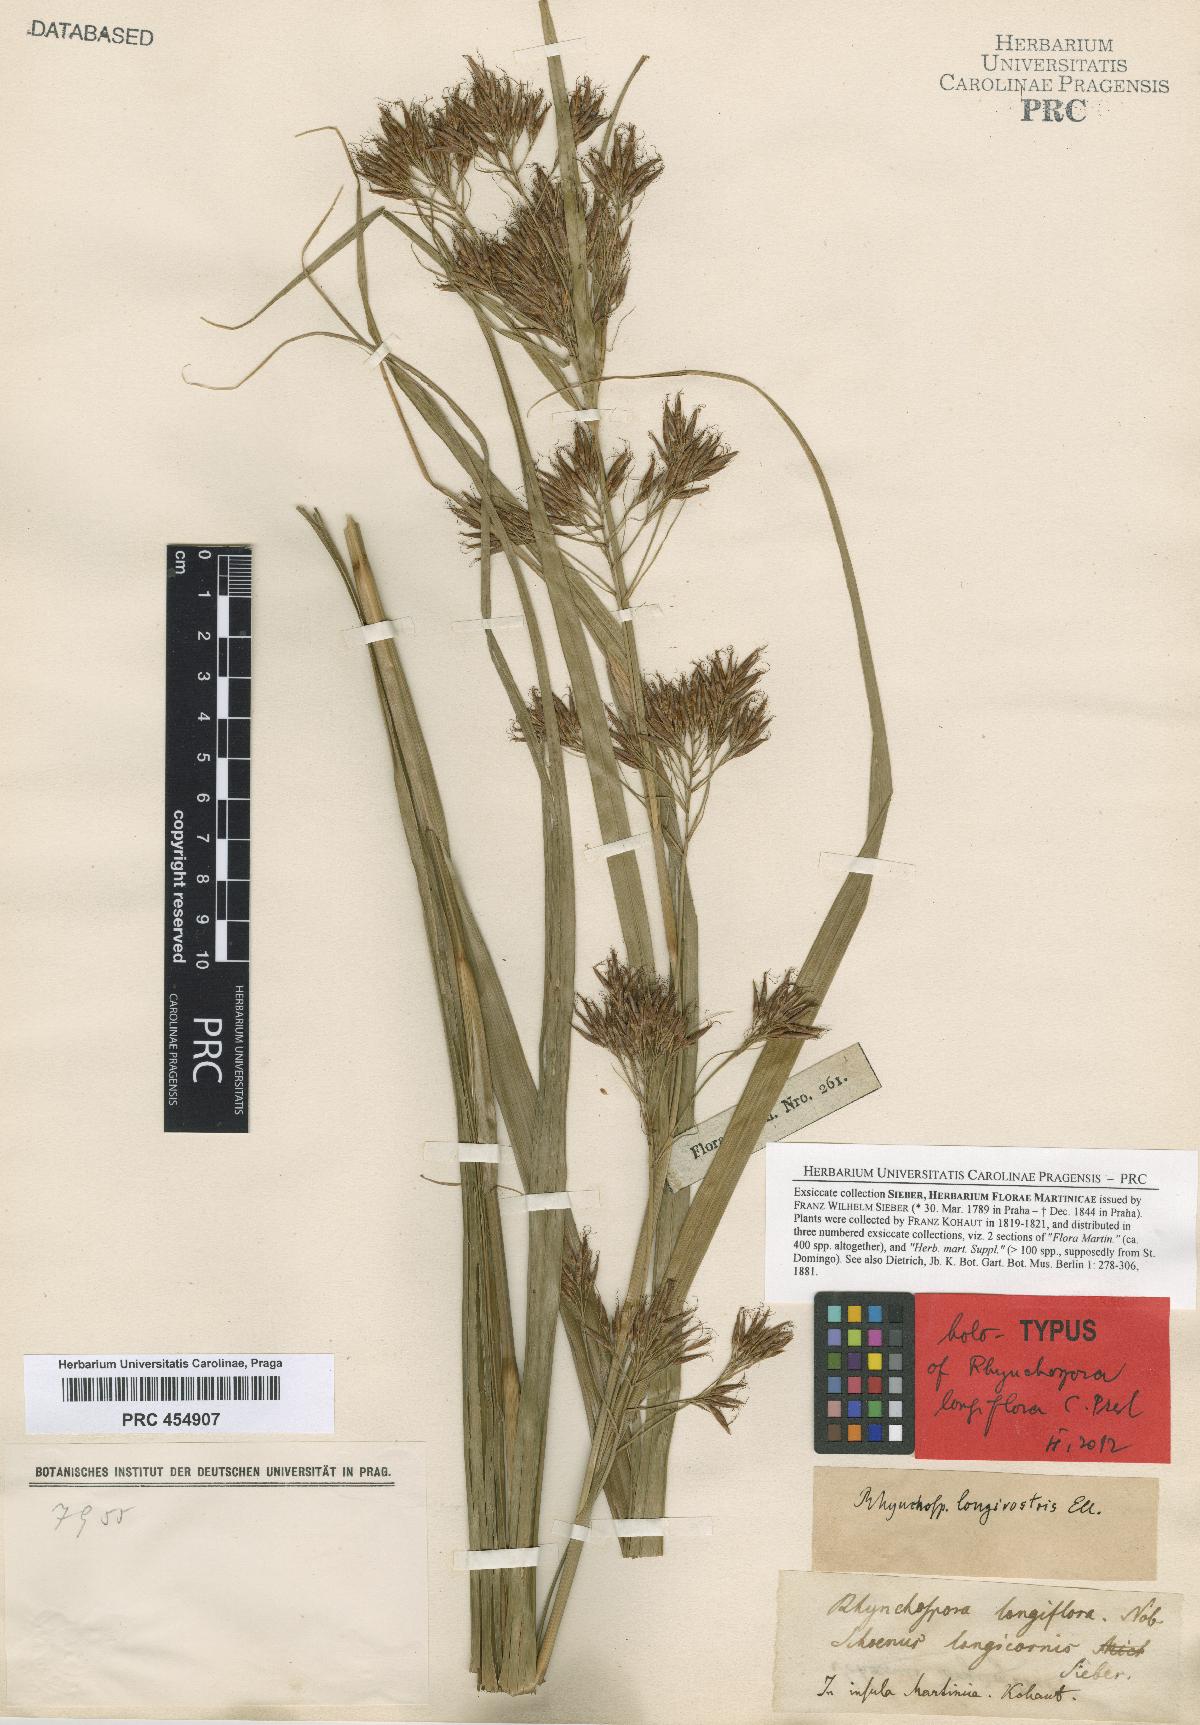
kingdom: Plantae
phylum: Tracheophyta
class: Liliopsida
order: Poales
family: Cyperaceae
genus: Rhynchospora
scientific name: Rhynchospora longiflora
